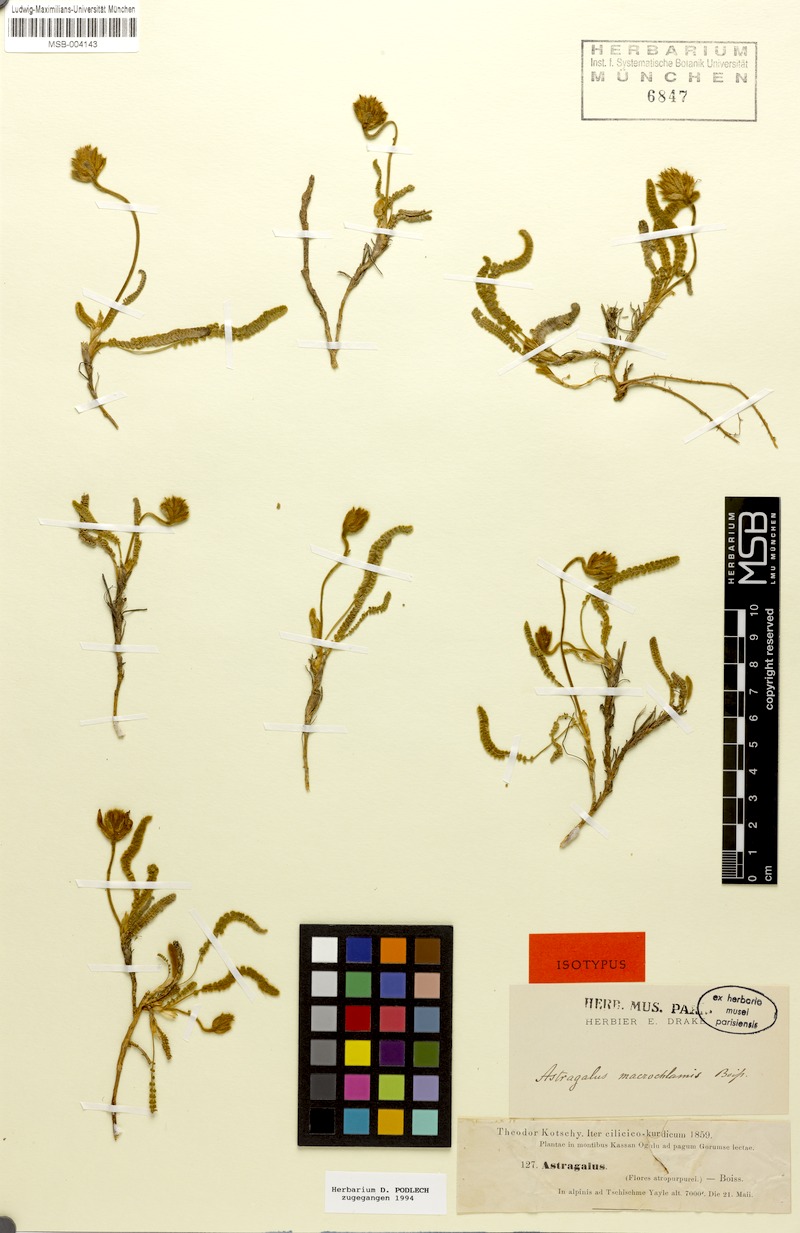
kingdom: Plantae
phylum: Tracheophyta
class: Magnoliopsida
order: Fabales
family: Fabaceae
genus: Astragalus
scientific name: Astragalus densifolius
